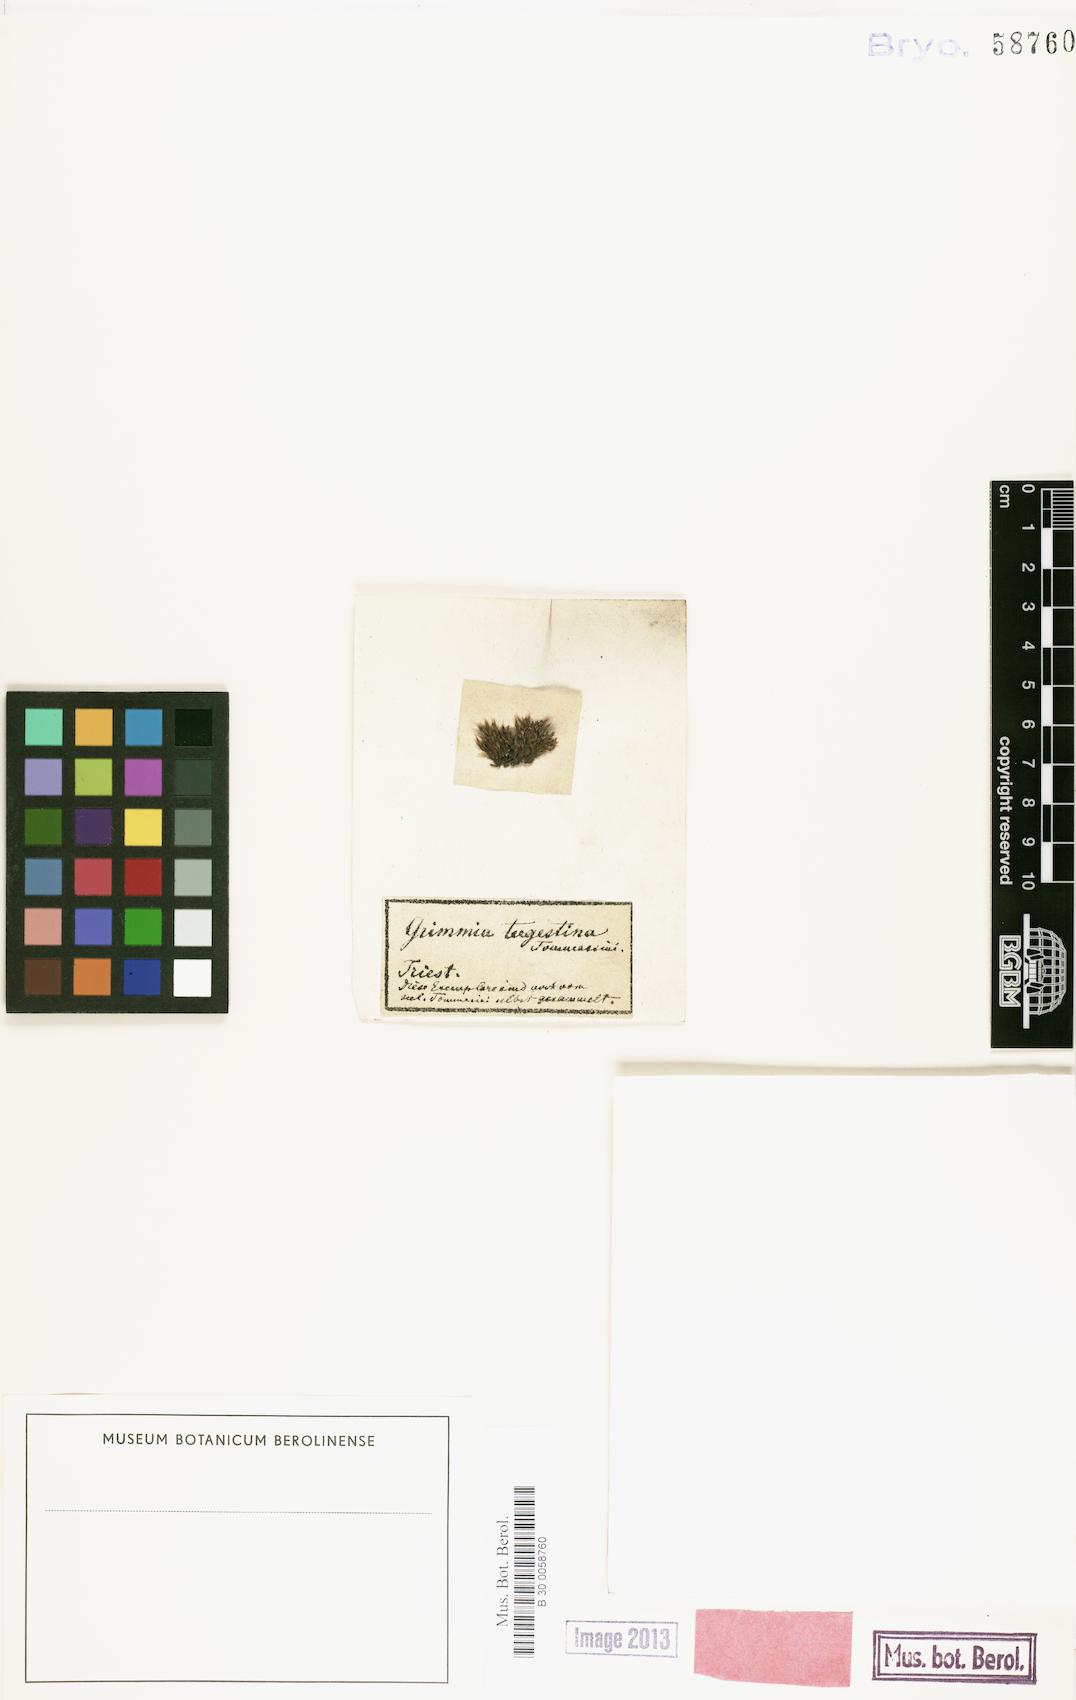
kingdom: Plantae
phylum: Bryophyta
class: Bryopsida
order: Grimmiales
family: Grimmiaceae
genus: Grimmia
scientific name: Grimmia tergestina
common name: Dapple-mouthed grimmia
